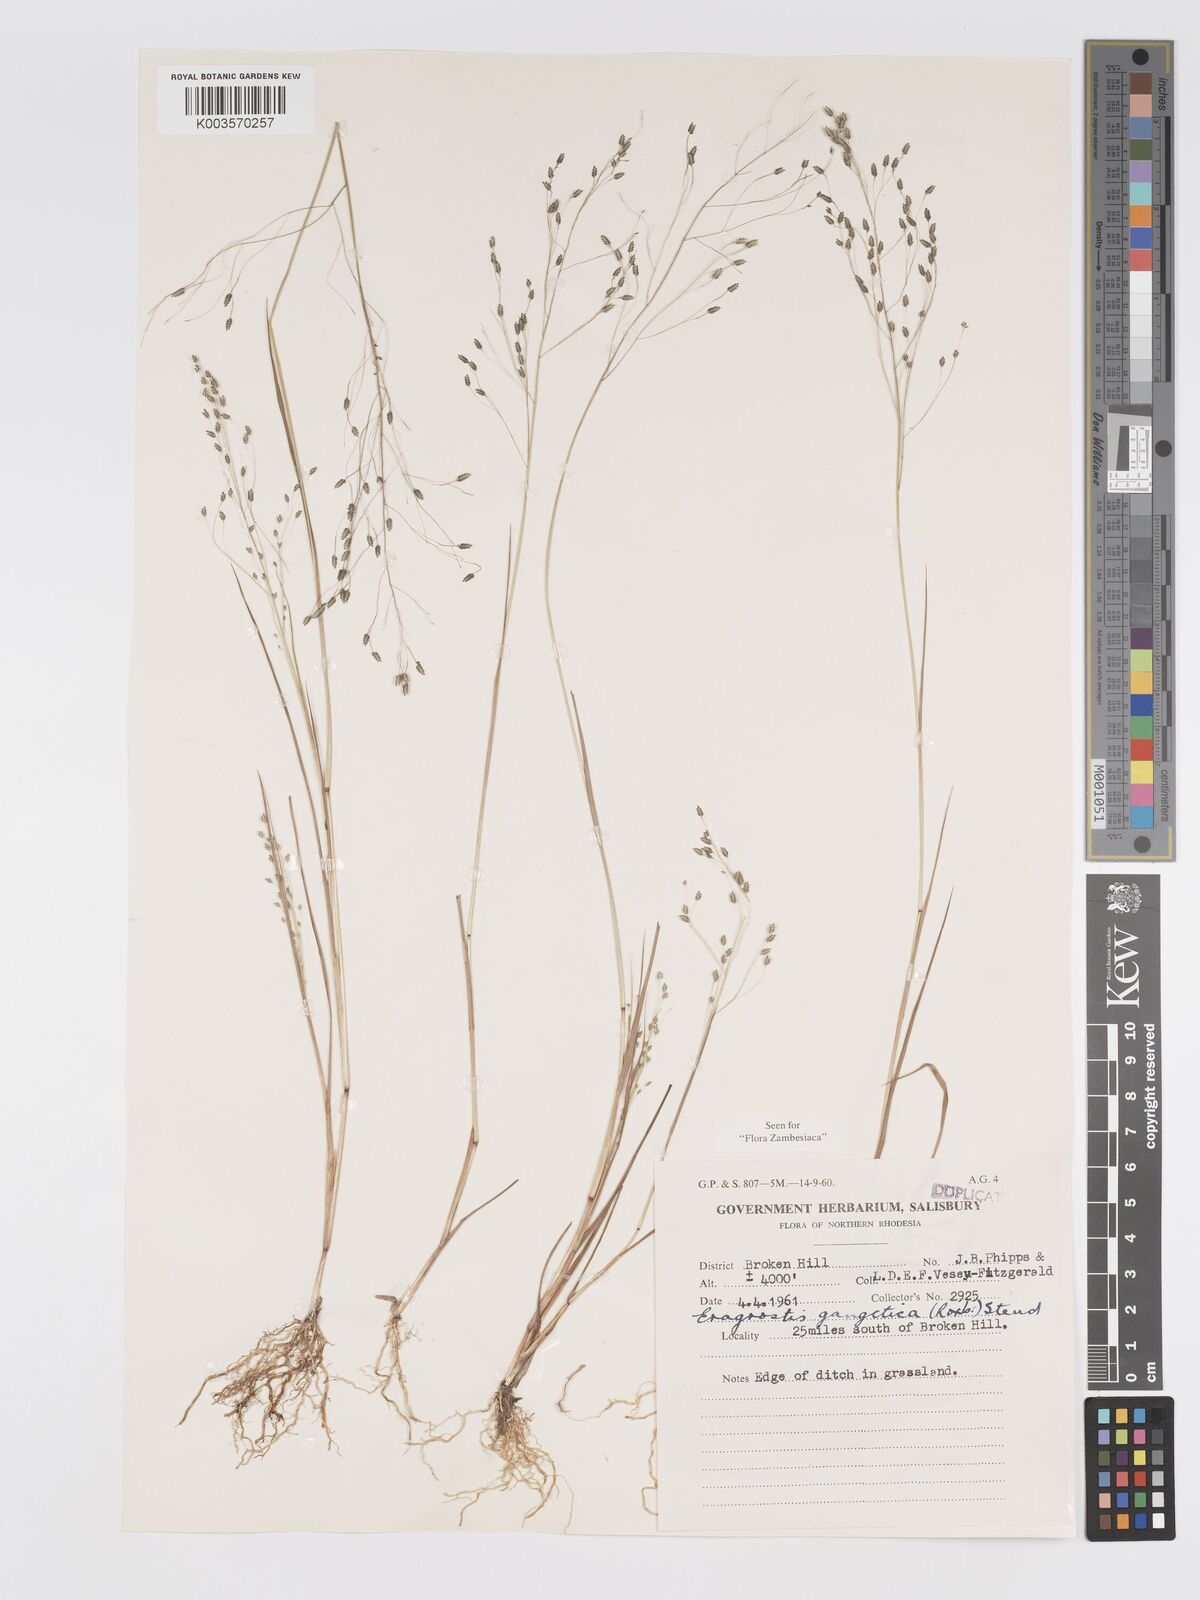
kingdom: Plantae
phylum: Tracheophyta
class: Liliopsida
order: Poales
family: Poaceae
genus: Eragrostis
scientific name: Eragrostis gangetica
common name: Slimflower lovegrass
